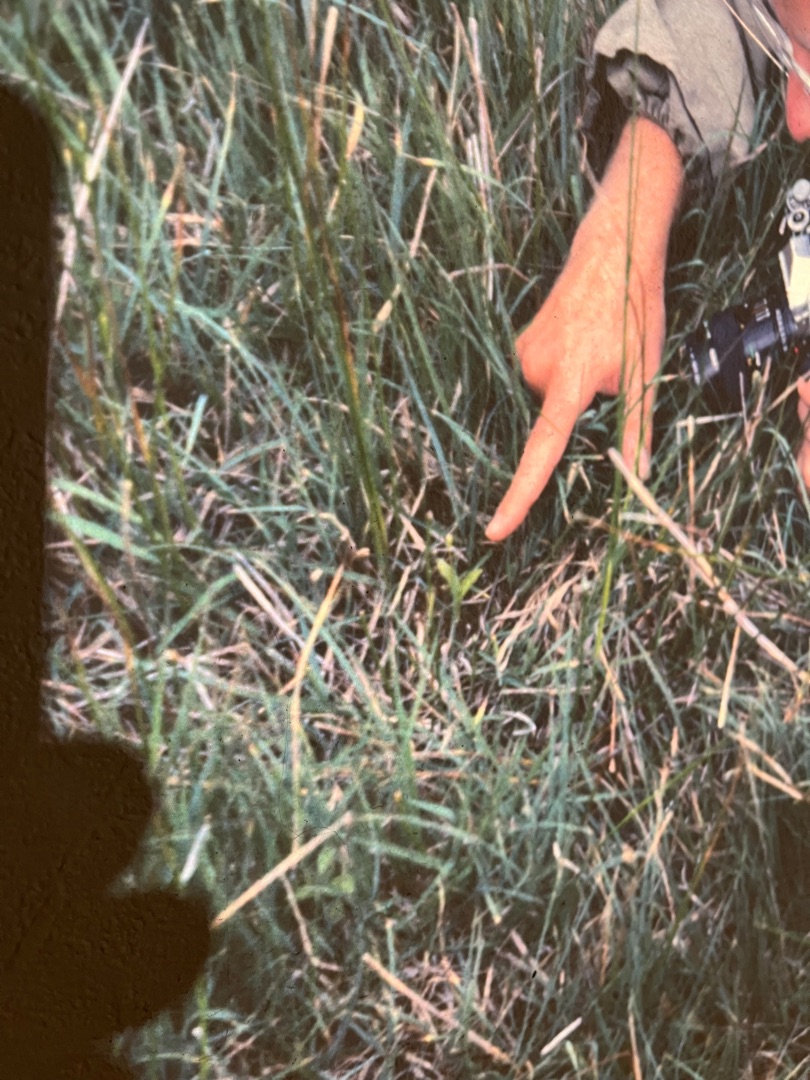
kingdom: Animalia
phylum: Arthropoda
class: Insecta
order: Coleoptera
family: Curculionidae
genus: Liparis
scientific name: Liparis loeselii
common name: Mygblomst
